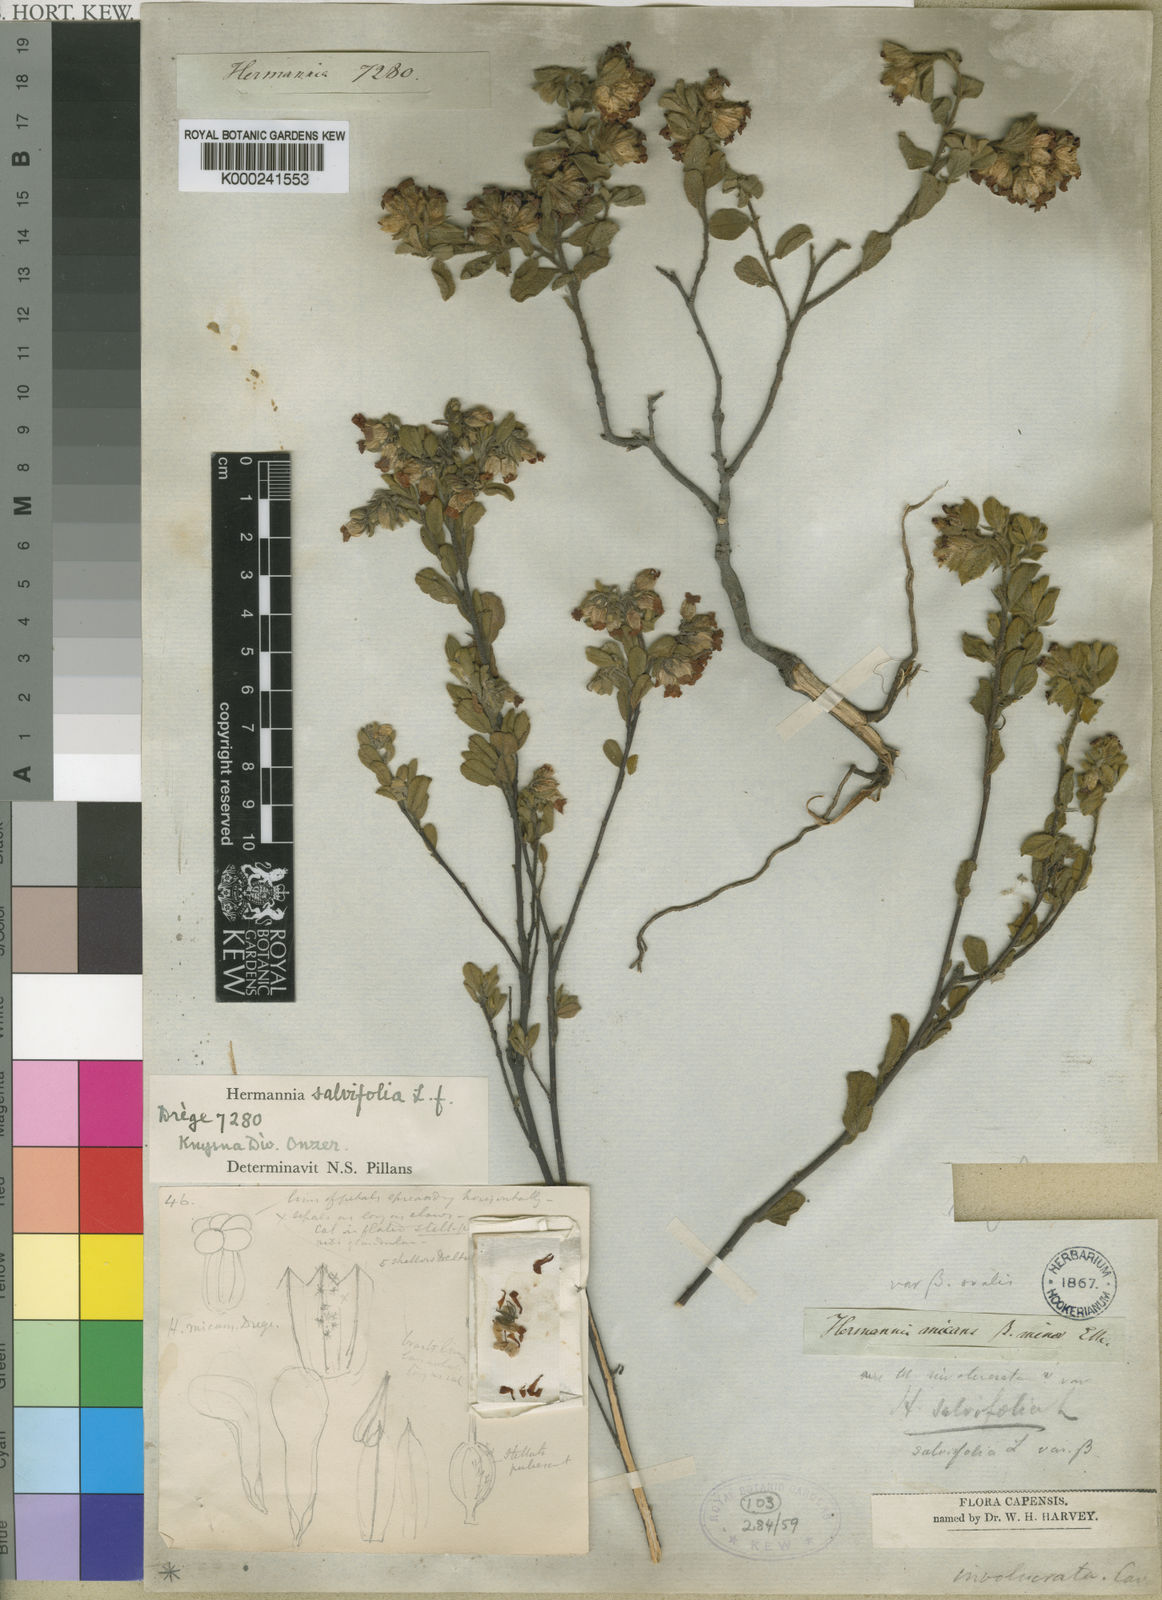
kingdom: Plantae
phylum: Tracheophyta
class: Magnoliopsida
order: Malvales
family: Malvaceae
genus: Hermannia
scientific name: Hermannia salviifolia
